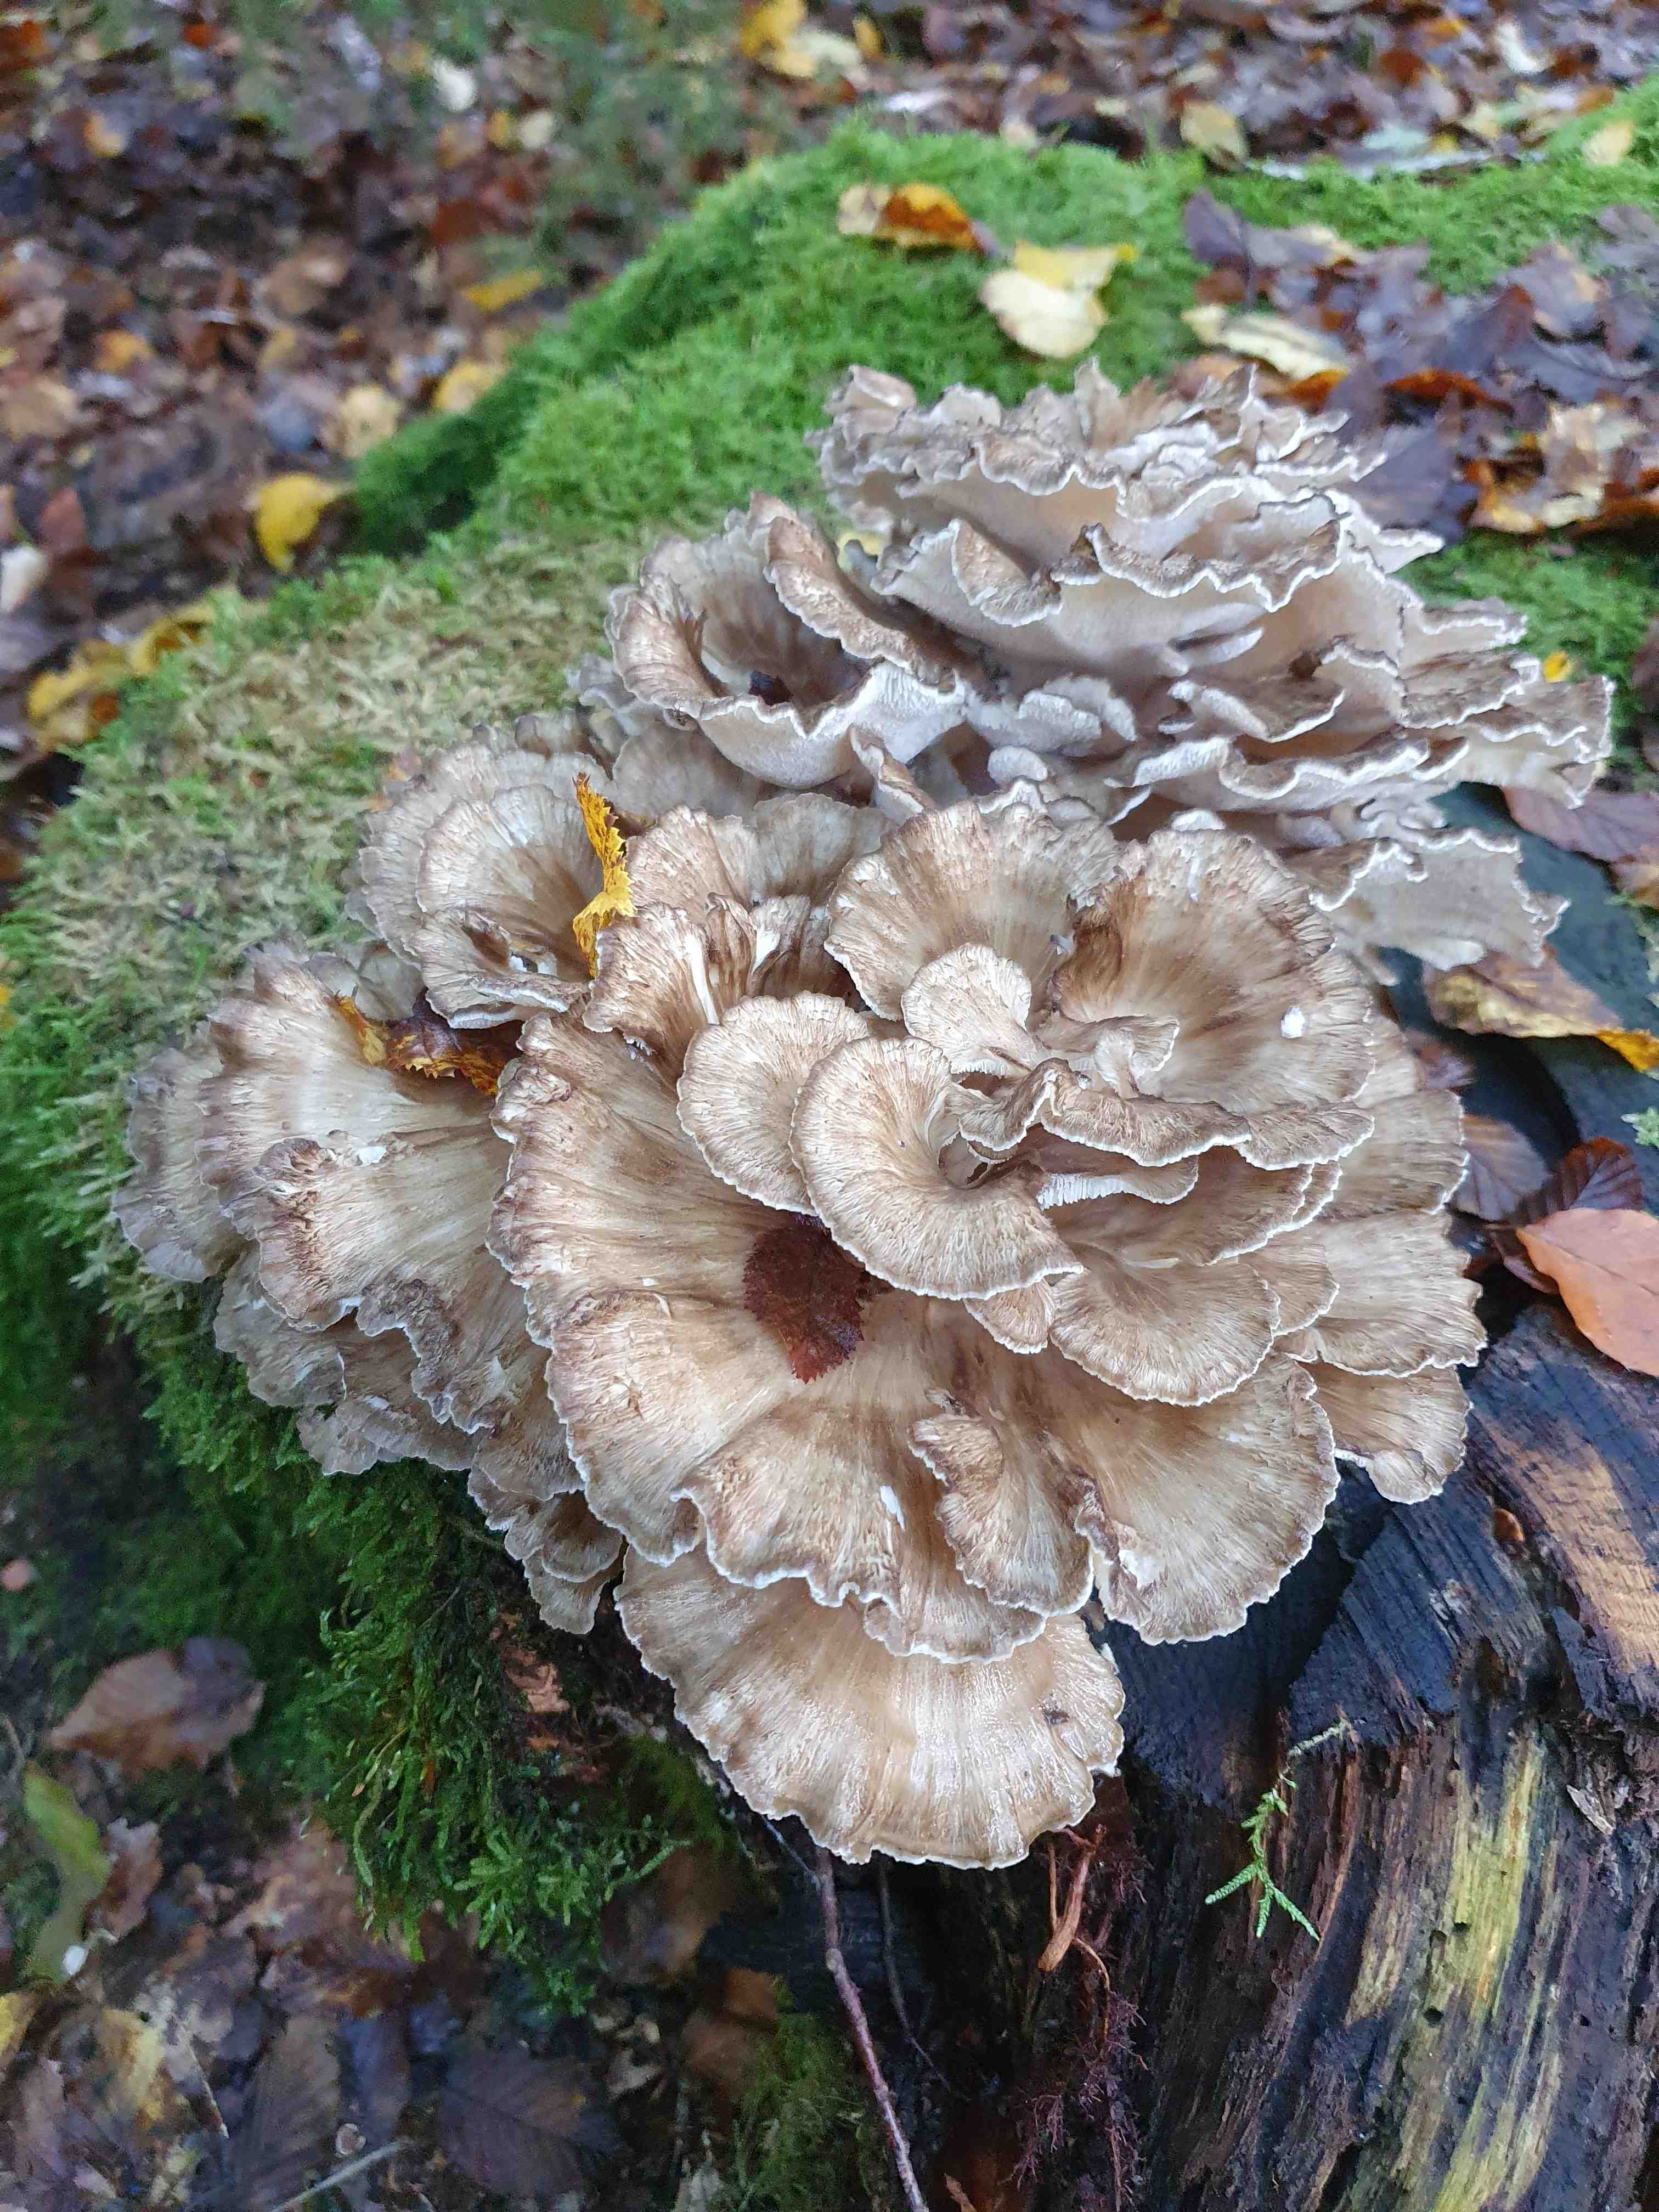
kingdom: Fungi
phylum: Basidiomycota
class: Agaricomycetes
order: Polyporales
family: Grifolaceae
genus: Grifola
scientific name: Grifola frondosa
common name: tueporesvamp
